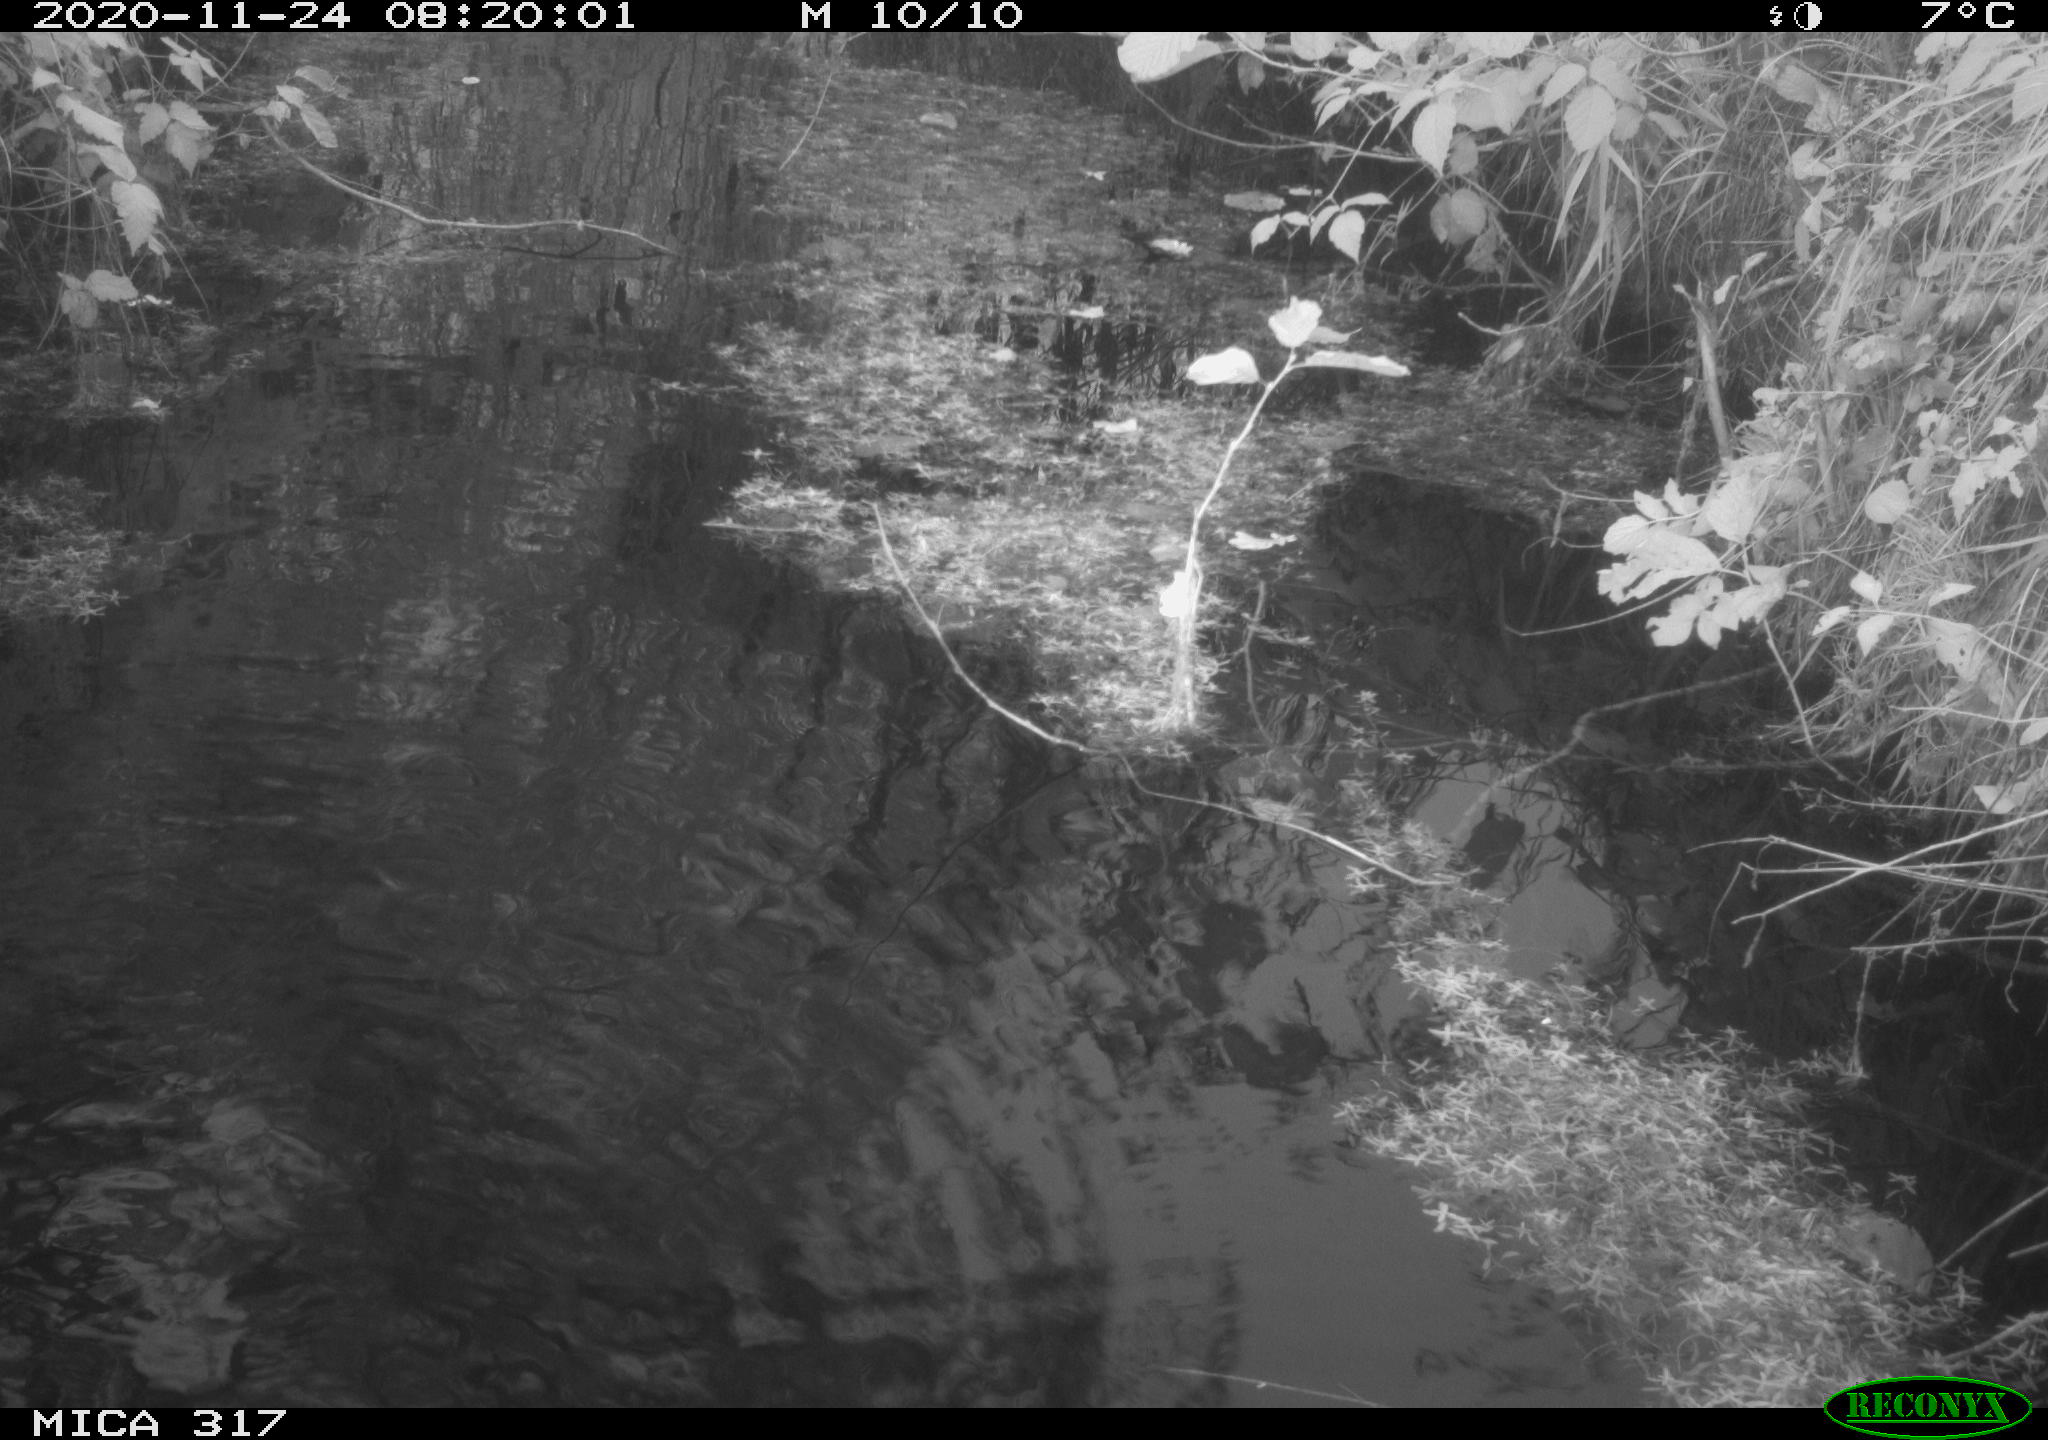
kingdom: Animalia
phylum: Chordata
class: Aves
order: Gruiformes
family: Rallidae
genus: Fulica
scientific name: Fulica atra
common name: Eurasian coot
